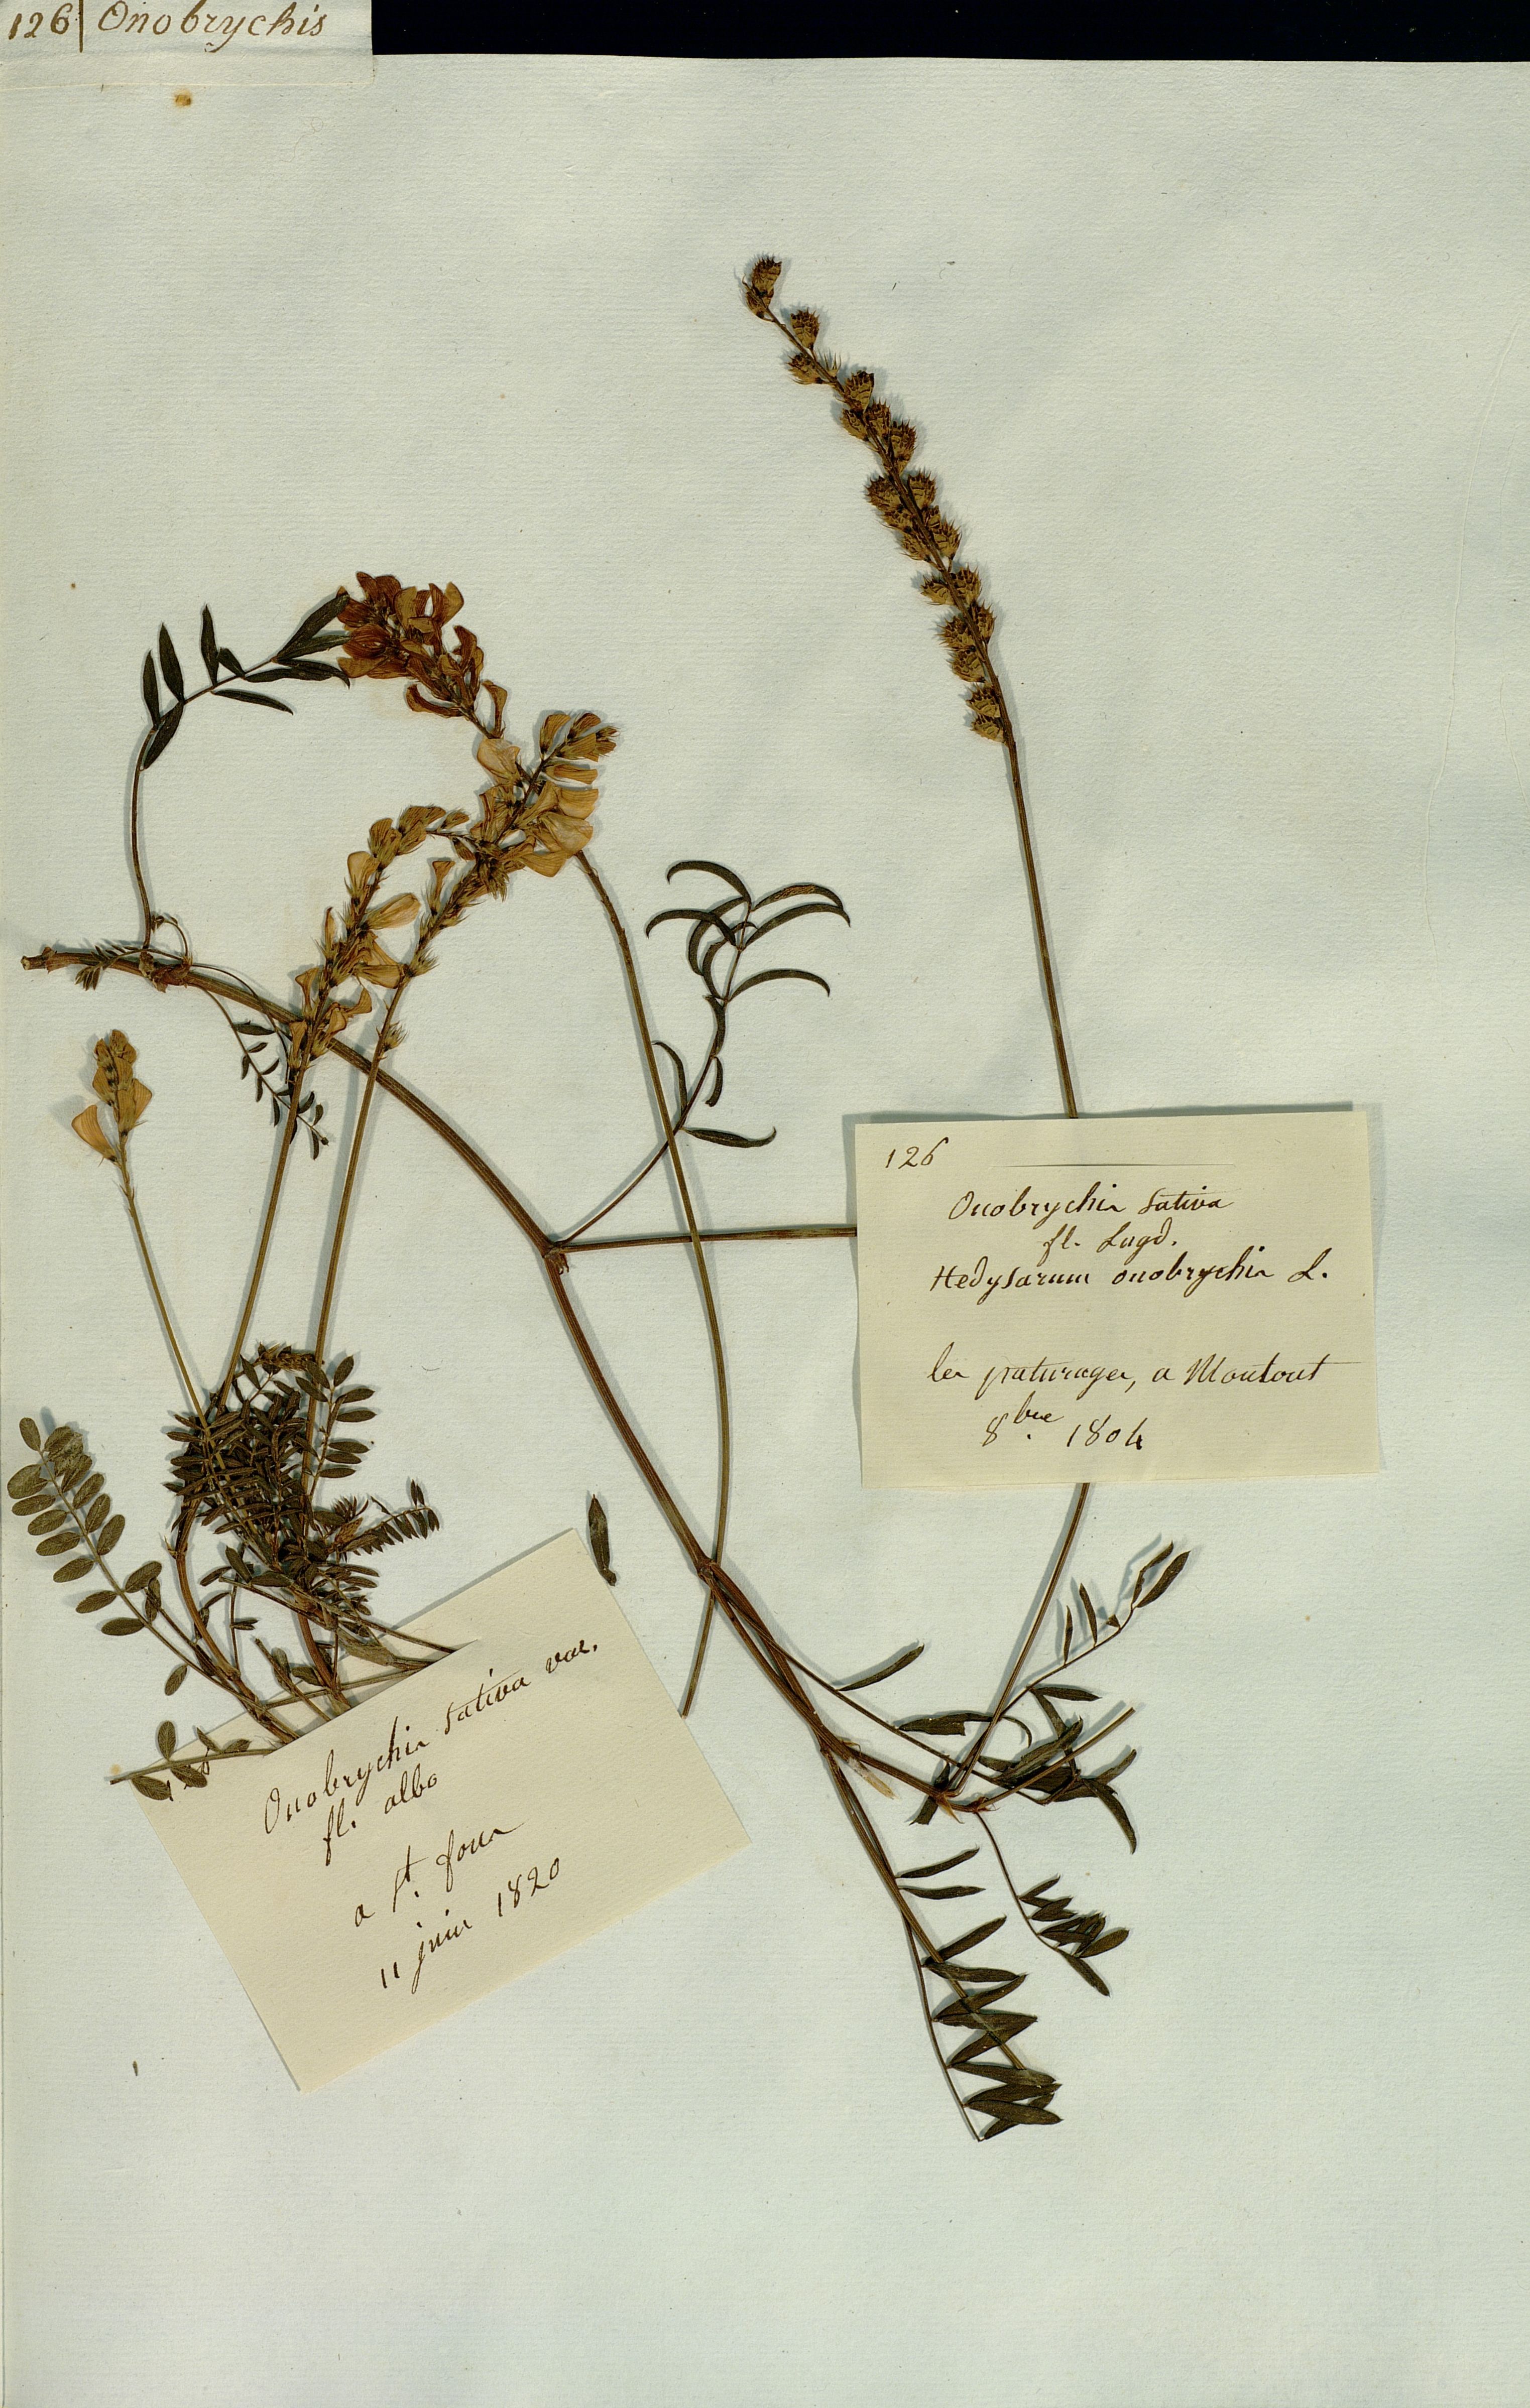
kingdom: Plantae
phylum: Tracheophyta
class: Magnoliopsida
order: Fabales
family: Fabaceae
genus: Onobrychis
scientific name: Onobrychis
